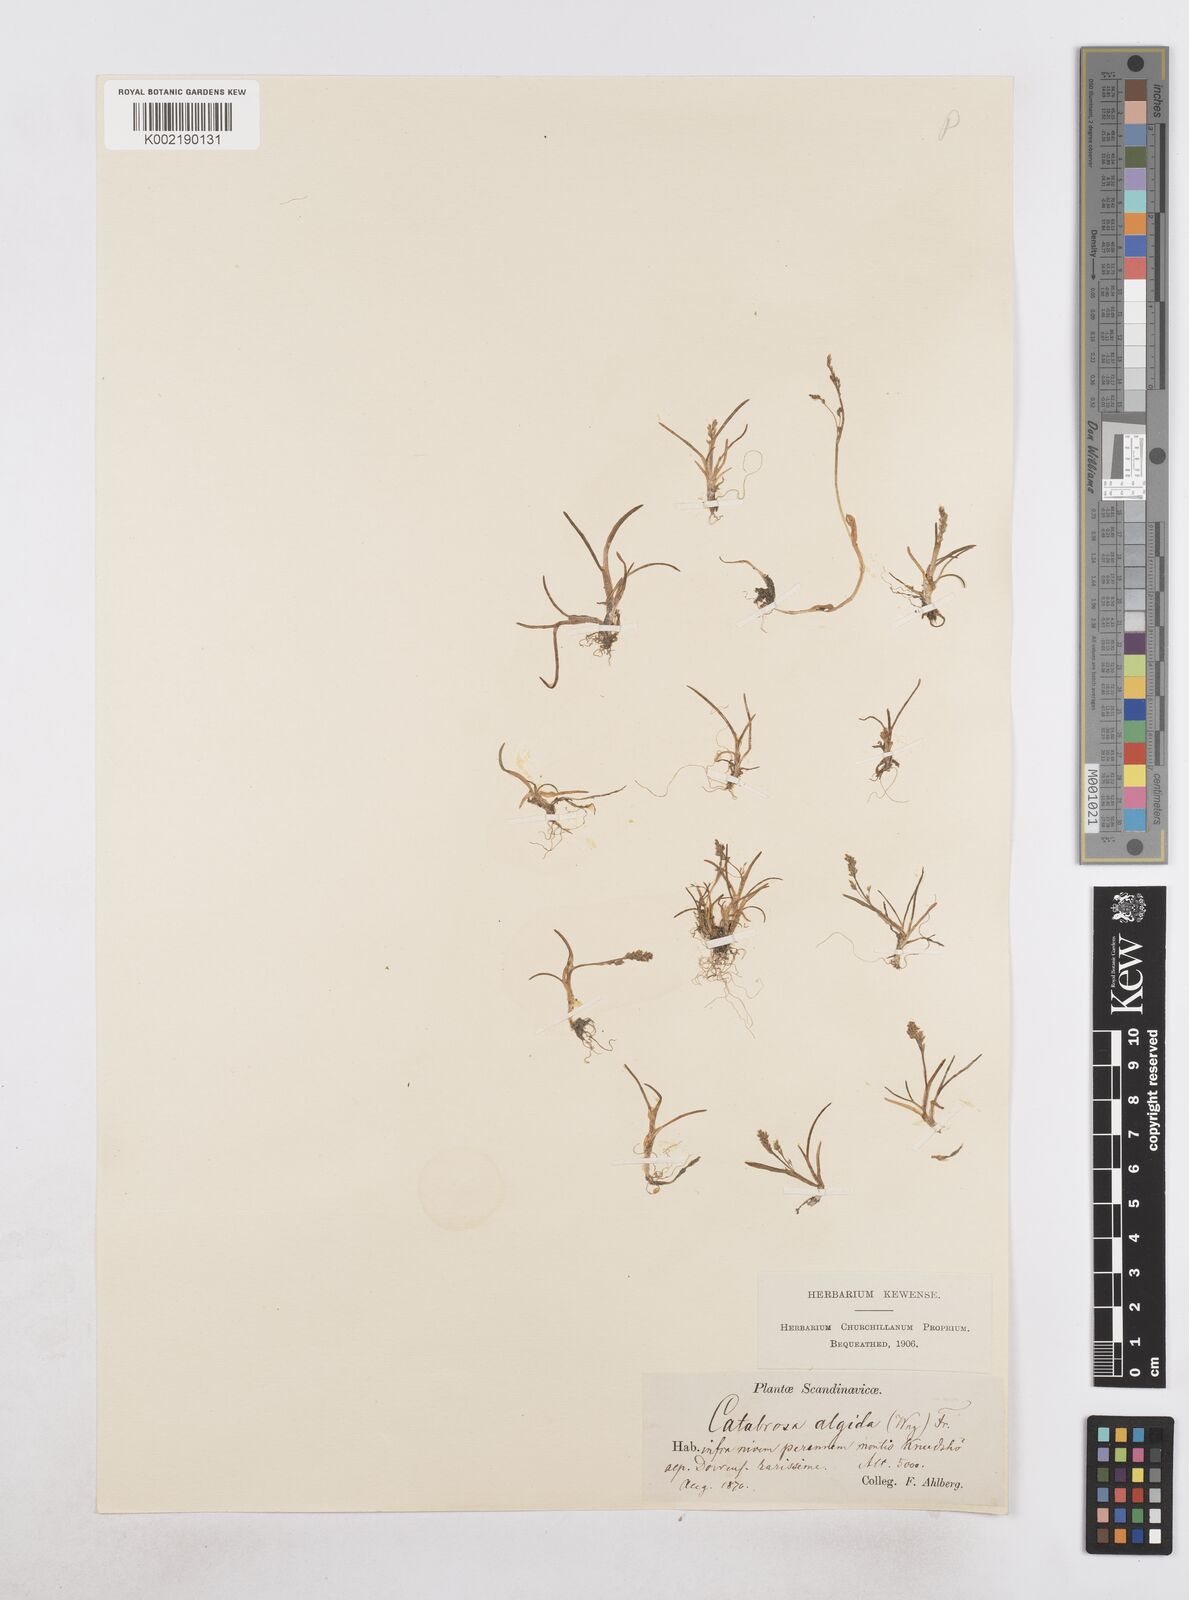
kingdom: Plantae
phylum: Tracheophyta
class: Liliopsida
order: Poales
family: Poaceae
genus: Phippsia
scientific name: Phippsia algida
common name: Ice grass
